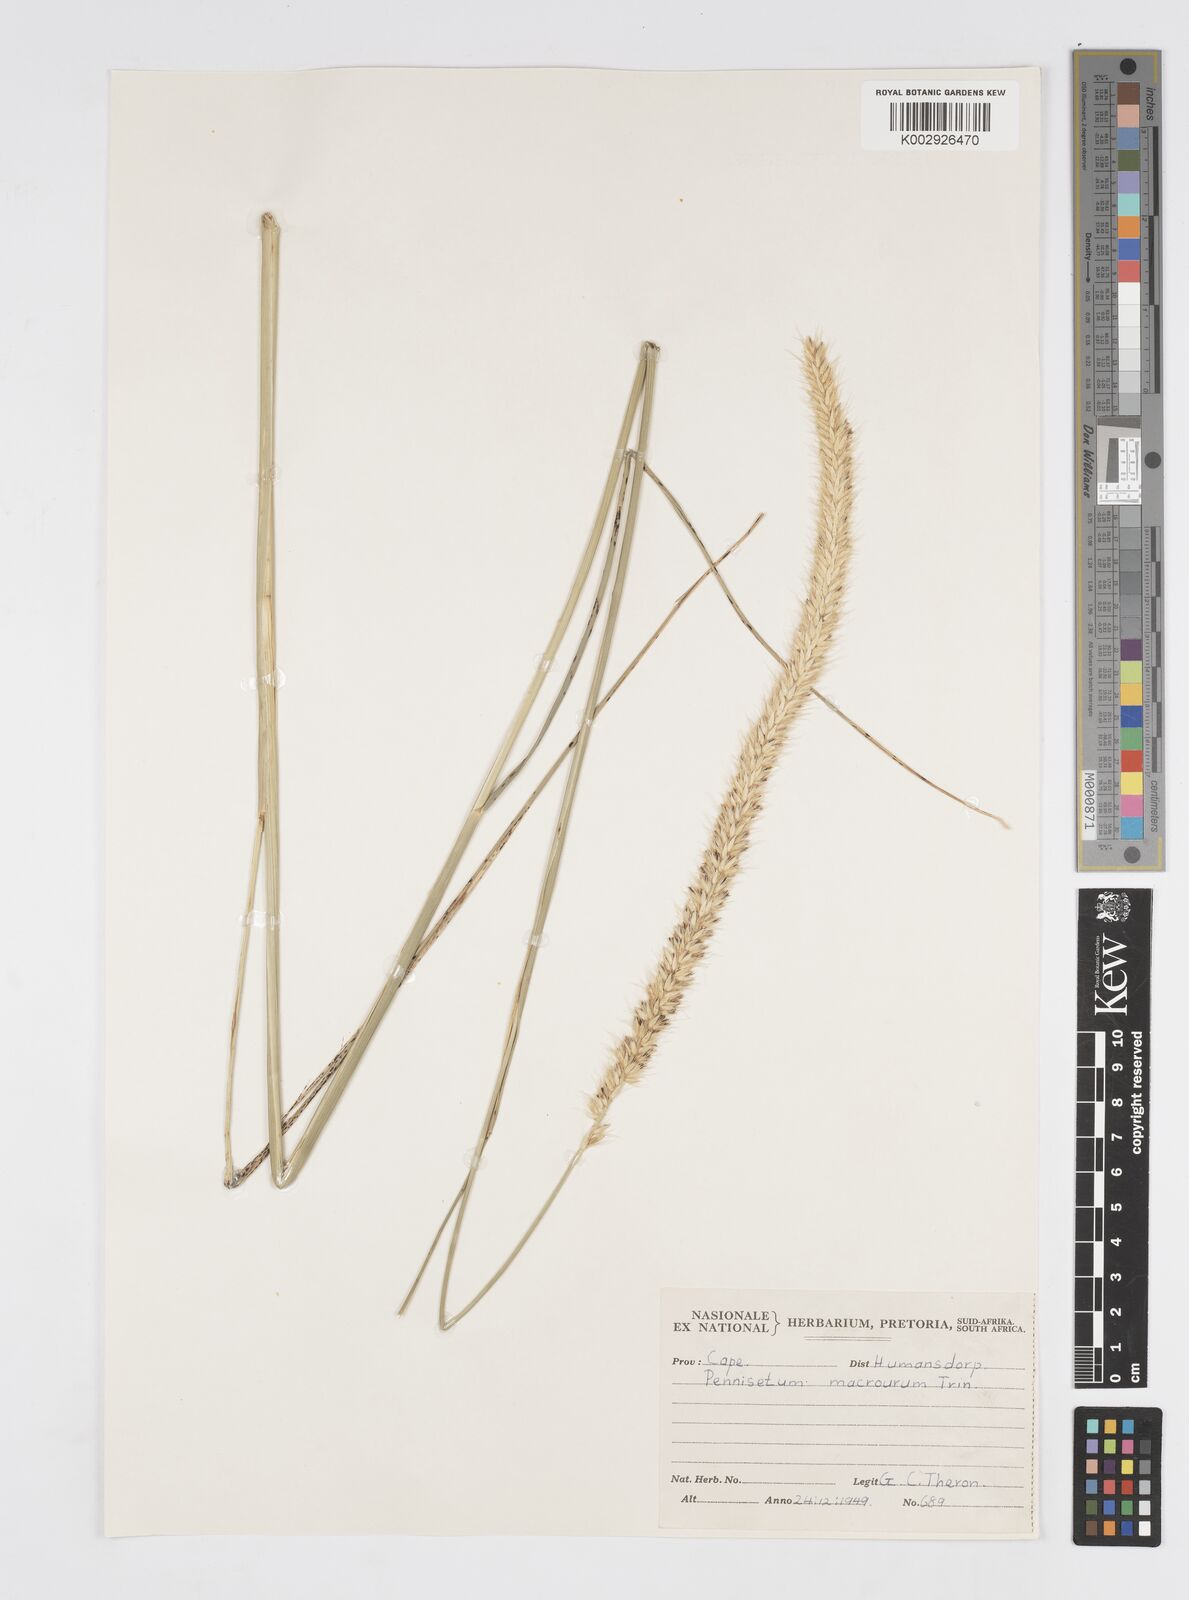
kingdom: Plantae
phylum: Tracheophyta
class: Liliopsida
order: Poales
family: Poaceae
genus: Cenchrus
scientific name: Cenchrus caudatus
